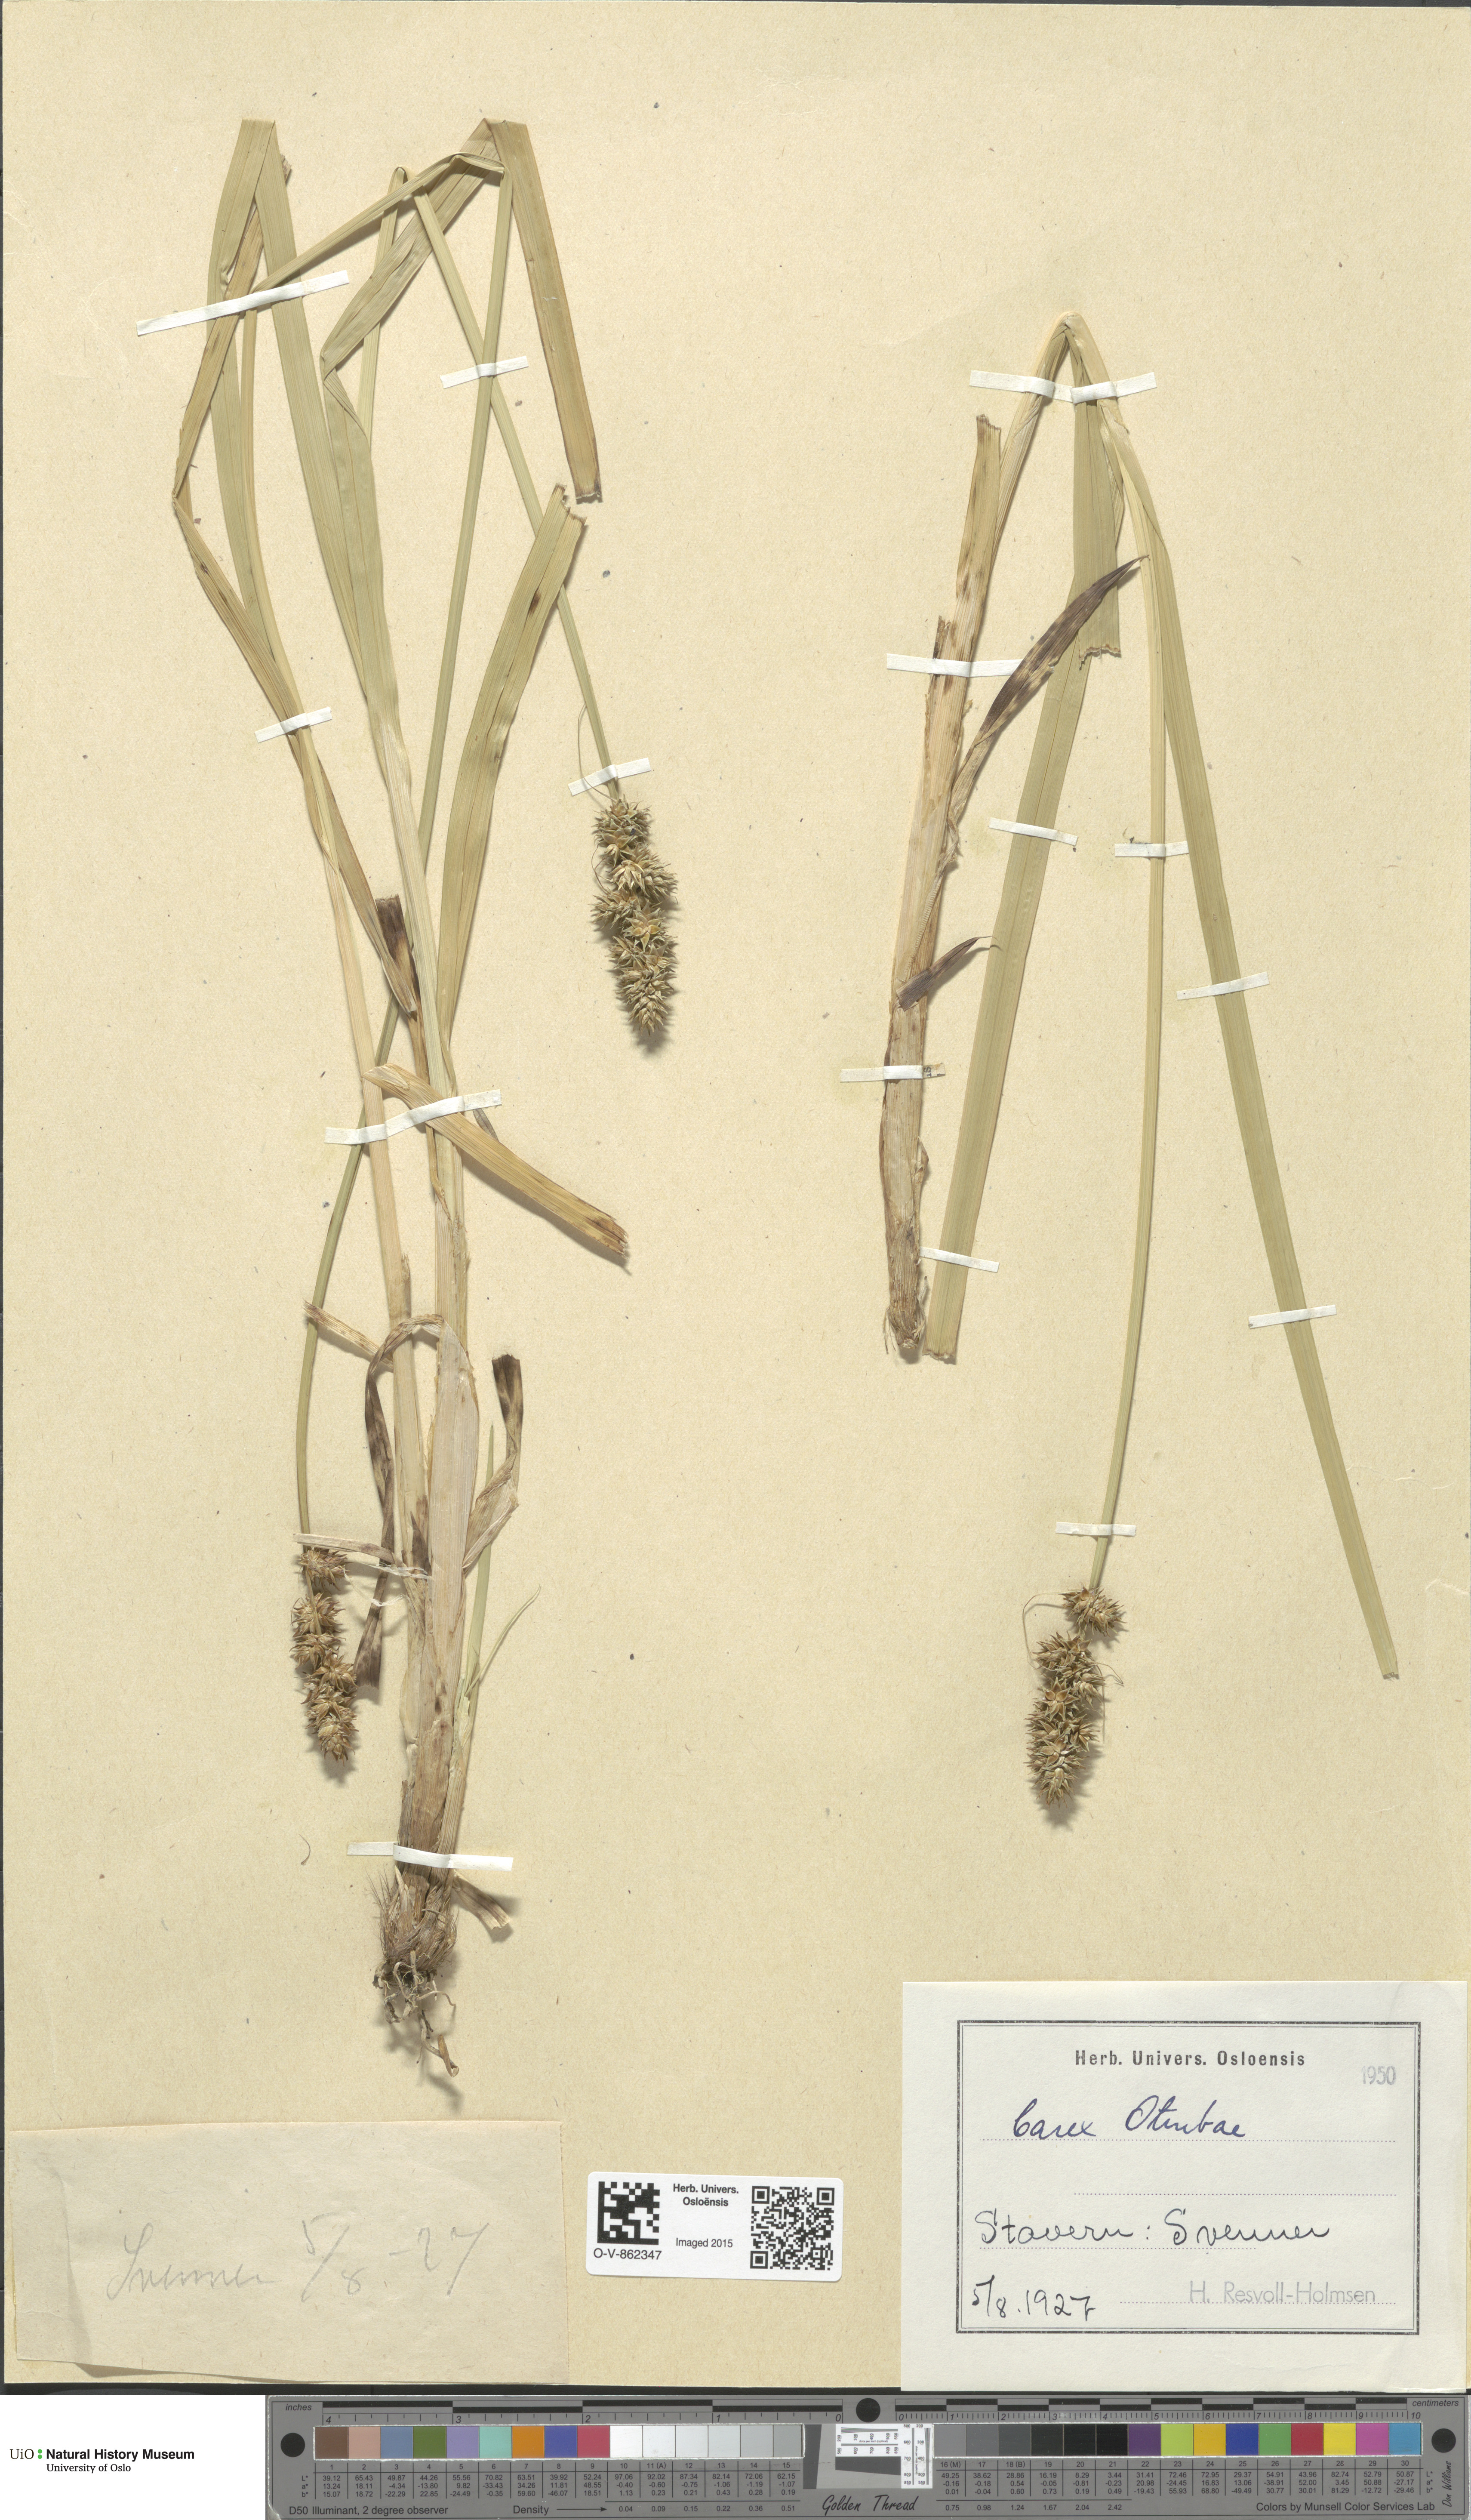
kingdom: Plantae
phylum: Tracheophyta
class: Liliopsida
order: Poales
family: Cyperaceae
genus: Carex
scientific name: Carex otrubae
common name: False fox-sedge
